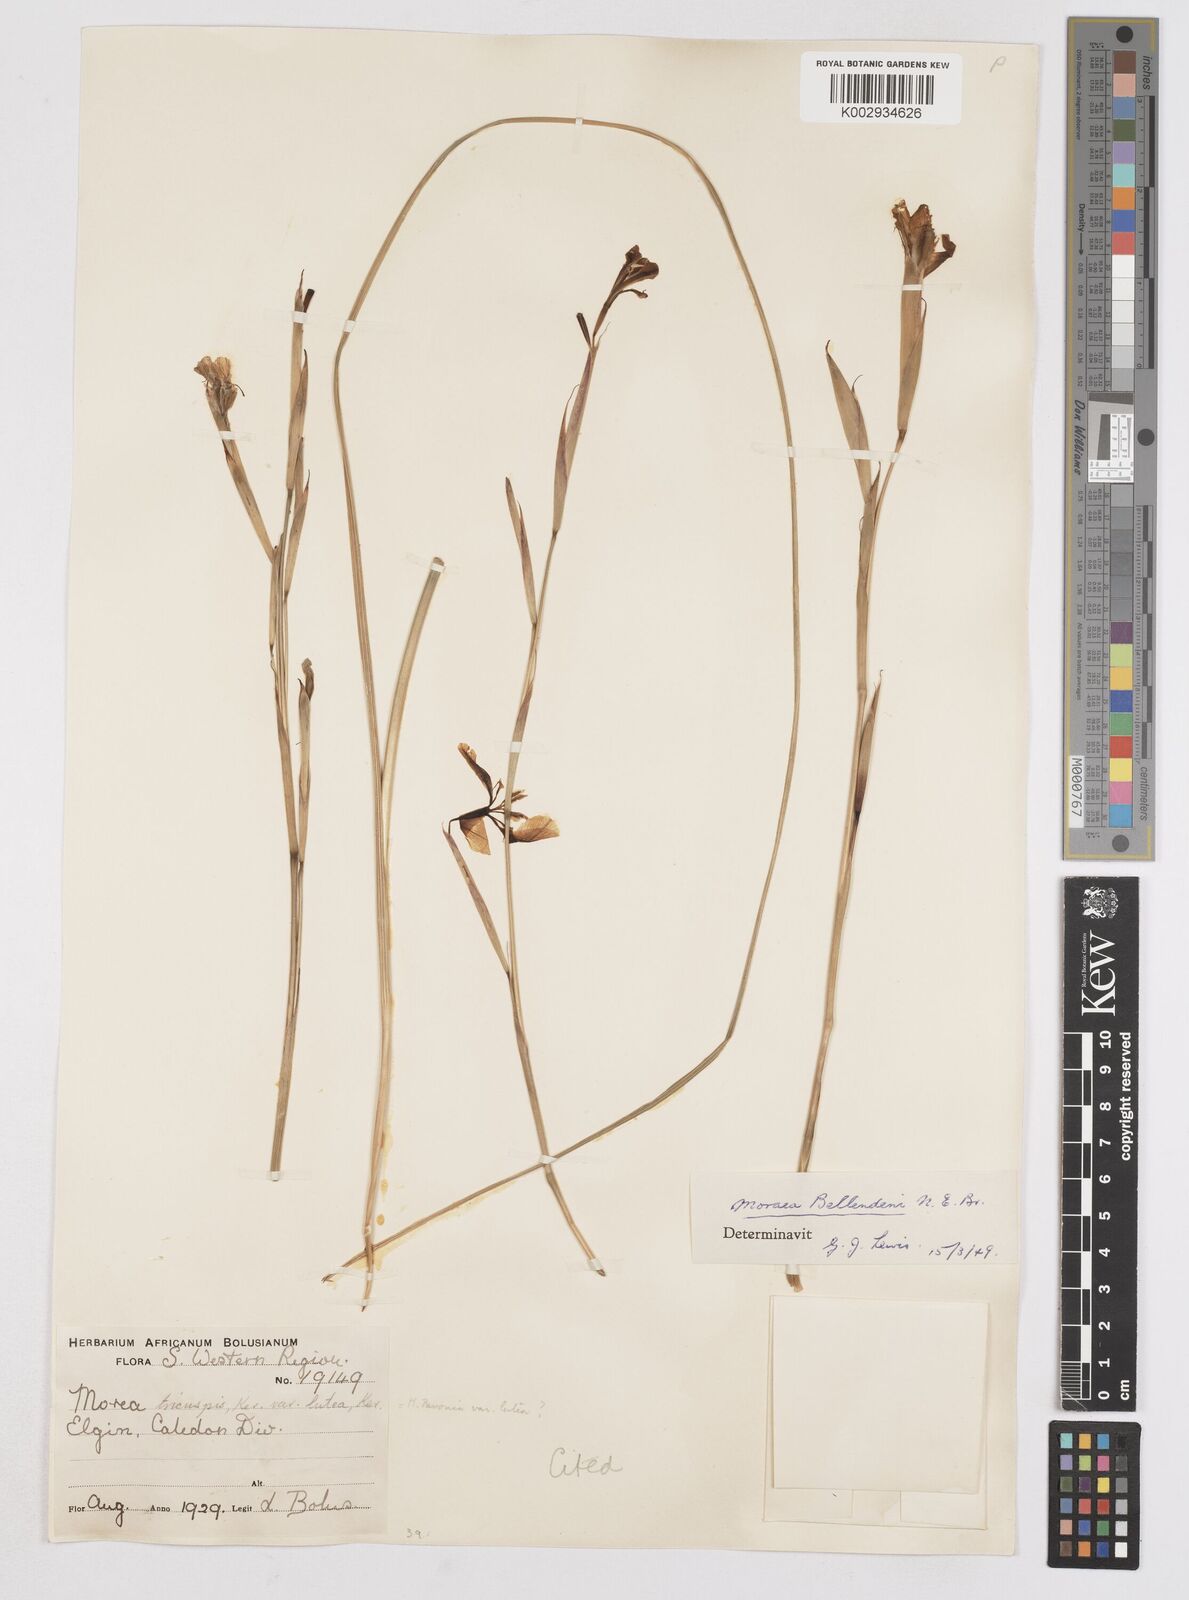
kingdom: Plantae
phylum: Tracheophyta
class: Liliopsida
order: Asparagales
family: Iridaceae
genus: Moraea
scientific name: Moraea bellendenii
